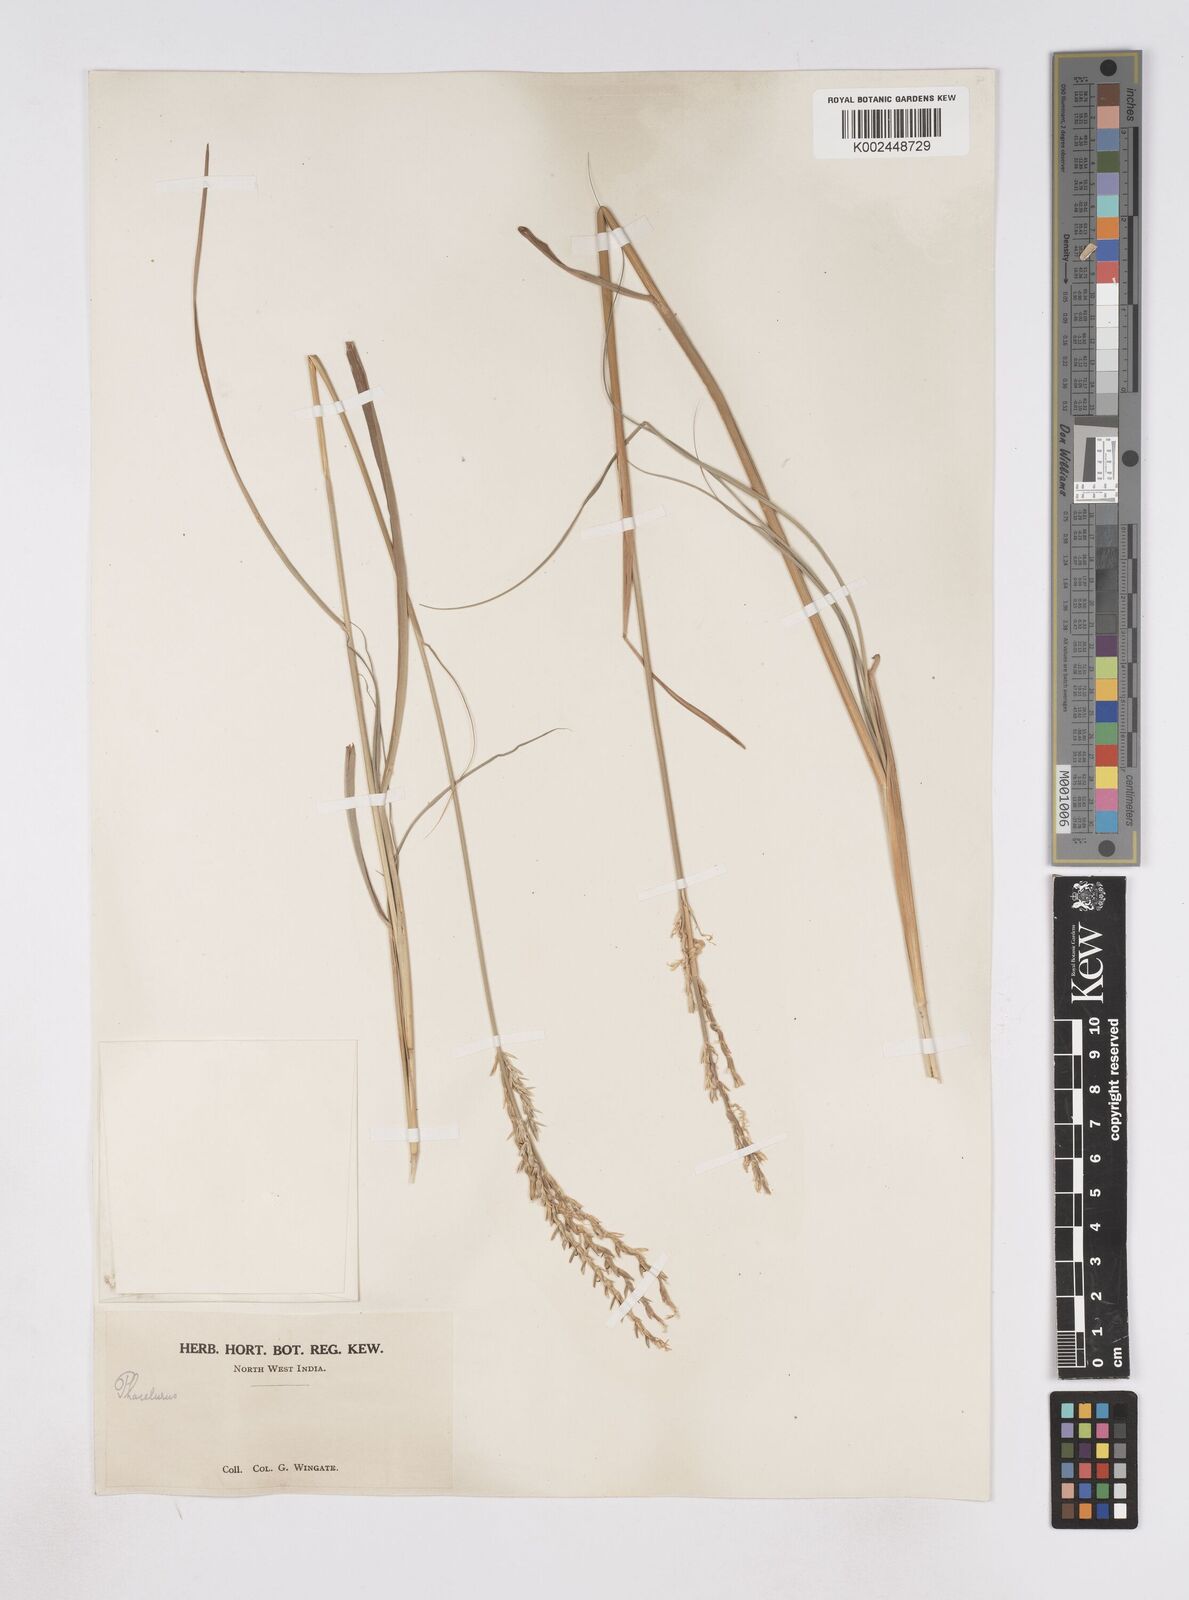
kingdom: Plantae
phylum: Tracheophyta
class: Liliopsida
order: Poales
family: Poaceae
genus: Phacelurus
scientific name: Phacelurus speciosus
